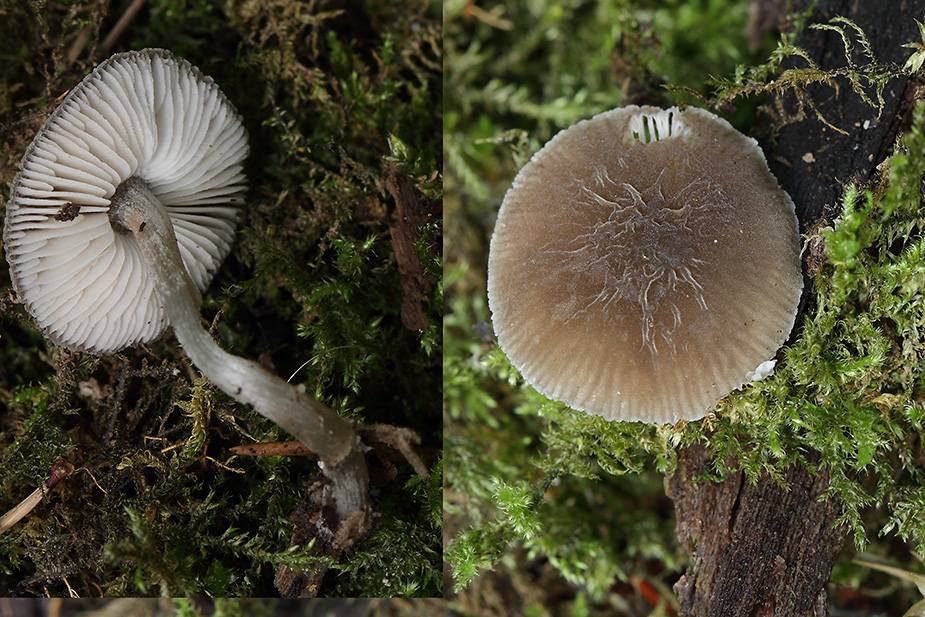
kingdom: Fungi
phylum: Basidiomycota
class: Agaricomycetes
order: Agaricales
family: Pluteaceae
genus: Pluteus
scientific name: Pluteus
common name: gråstokket skærmhat
